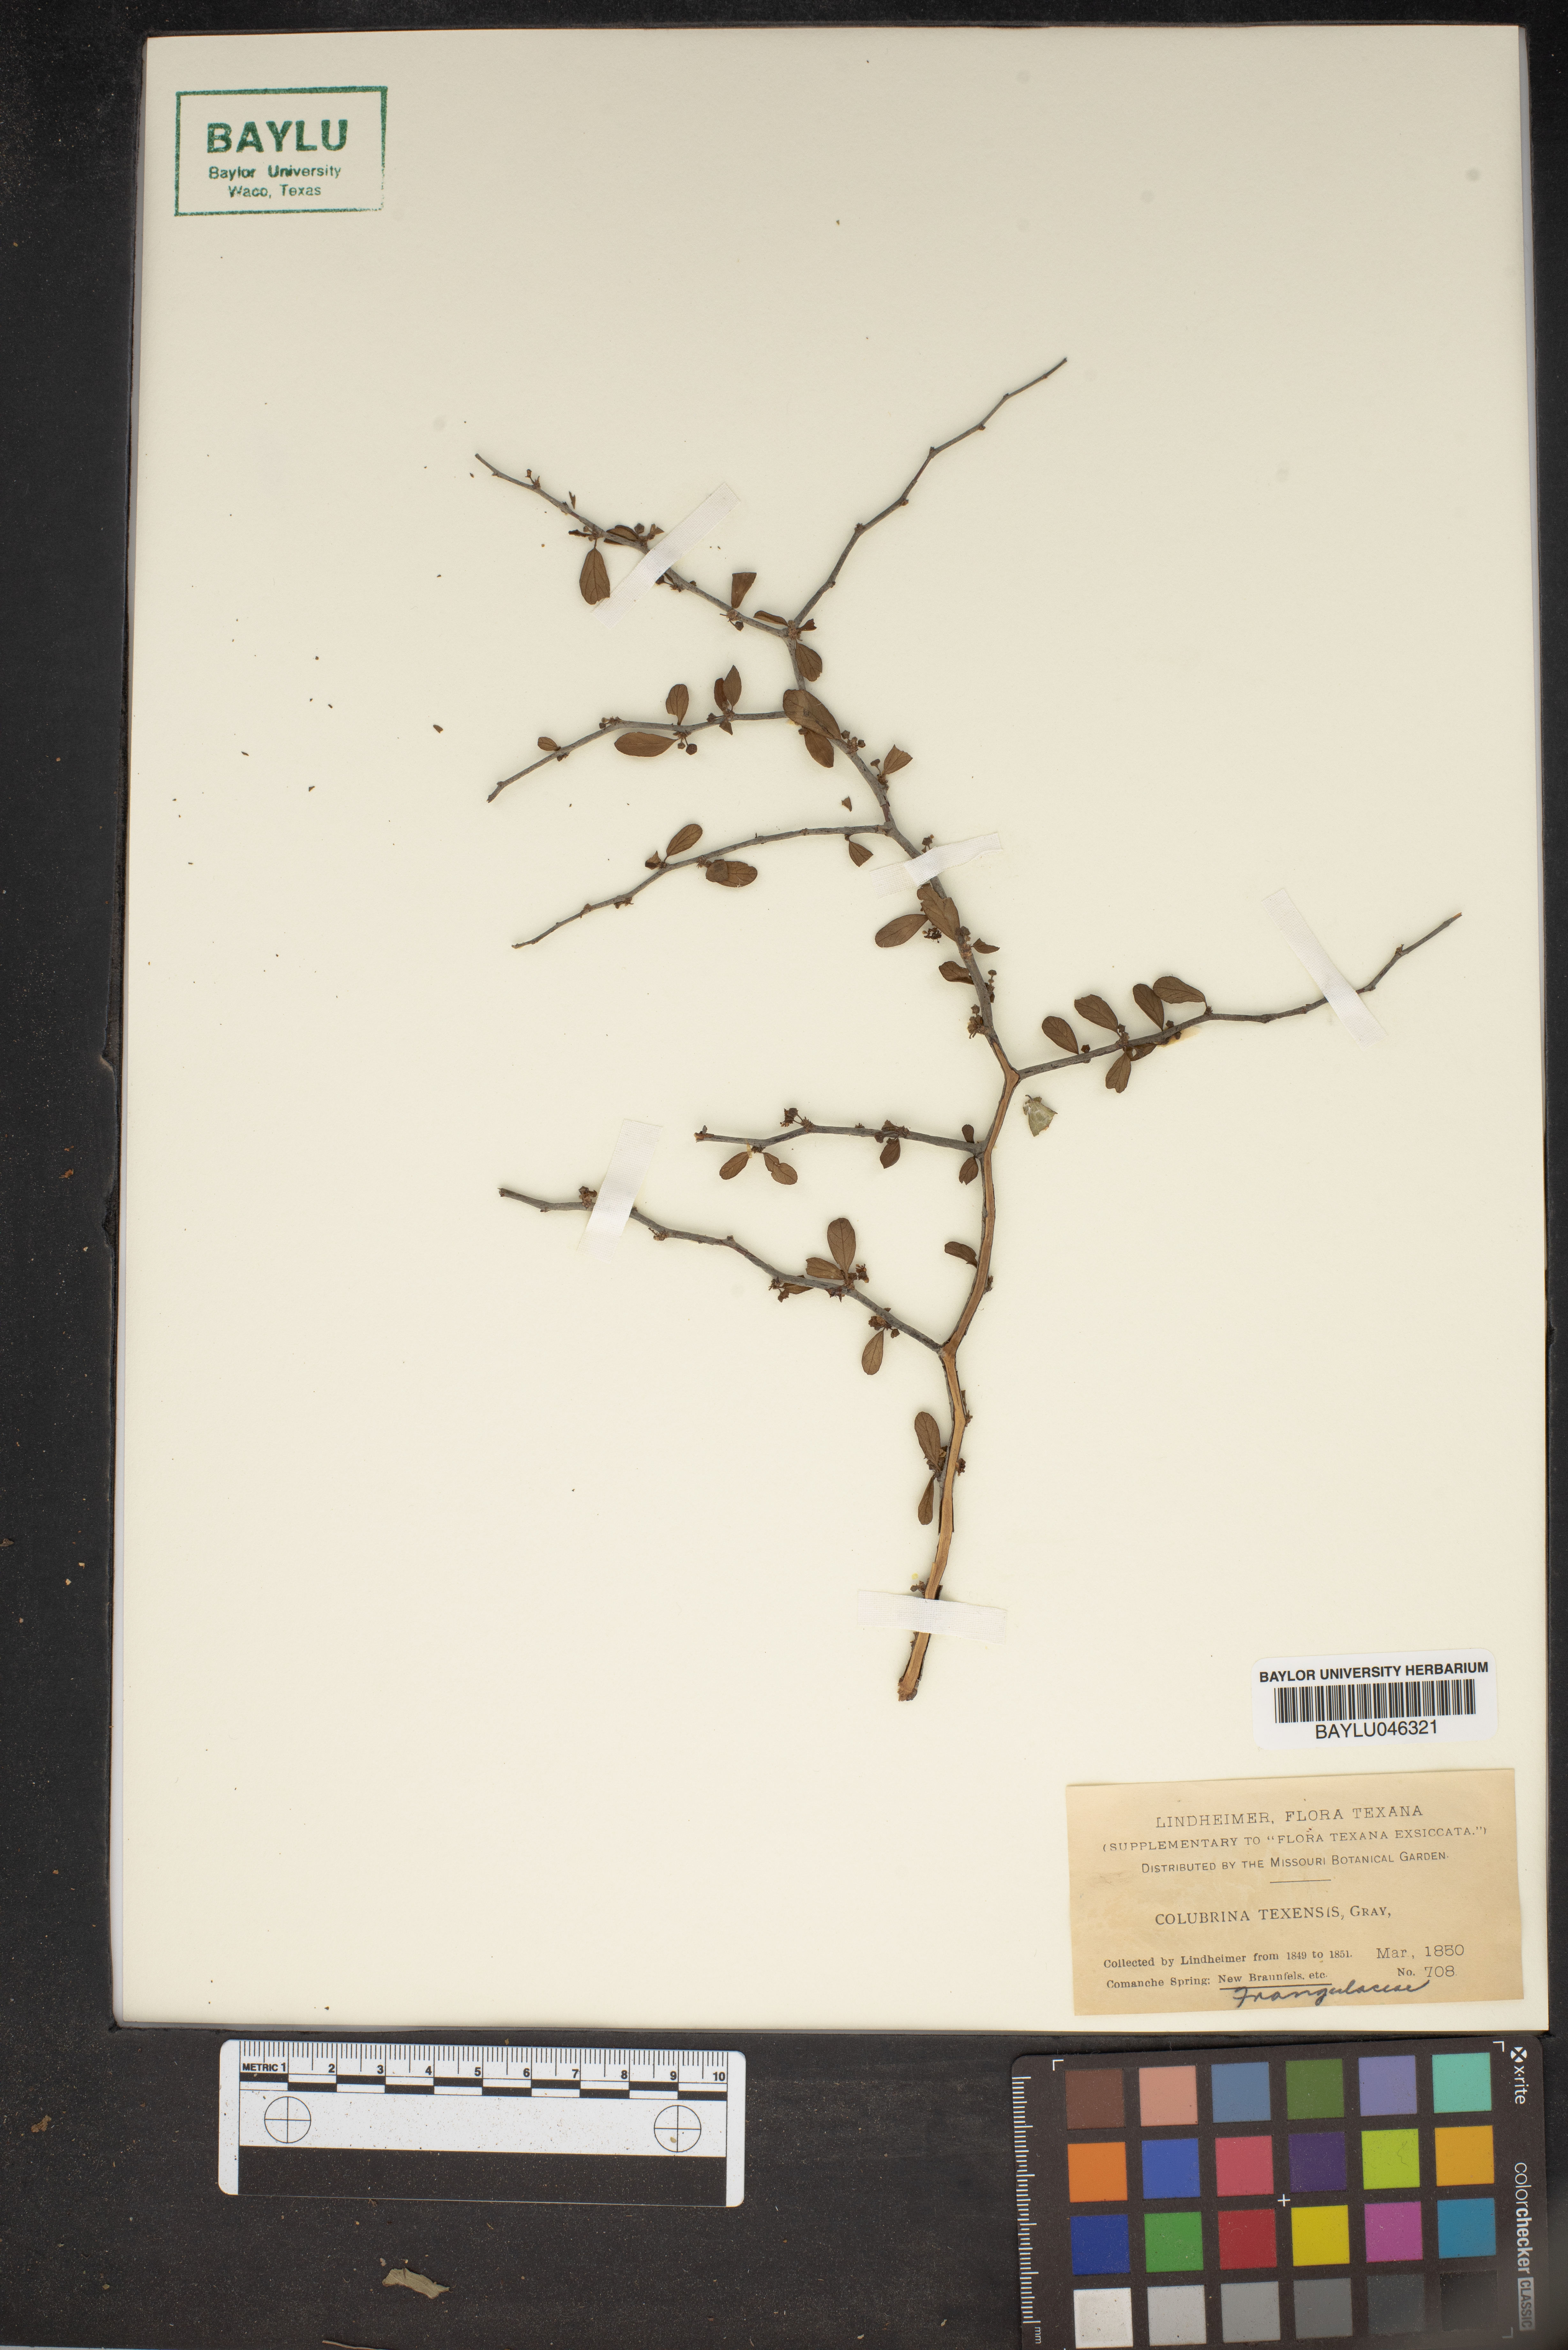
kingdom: Plantae
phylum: Tracheophyta
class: Magnoliopsida
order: Rosales
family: Rhamnaceae
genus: Colubrina
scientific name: Colubrina texensis
